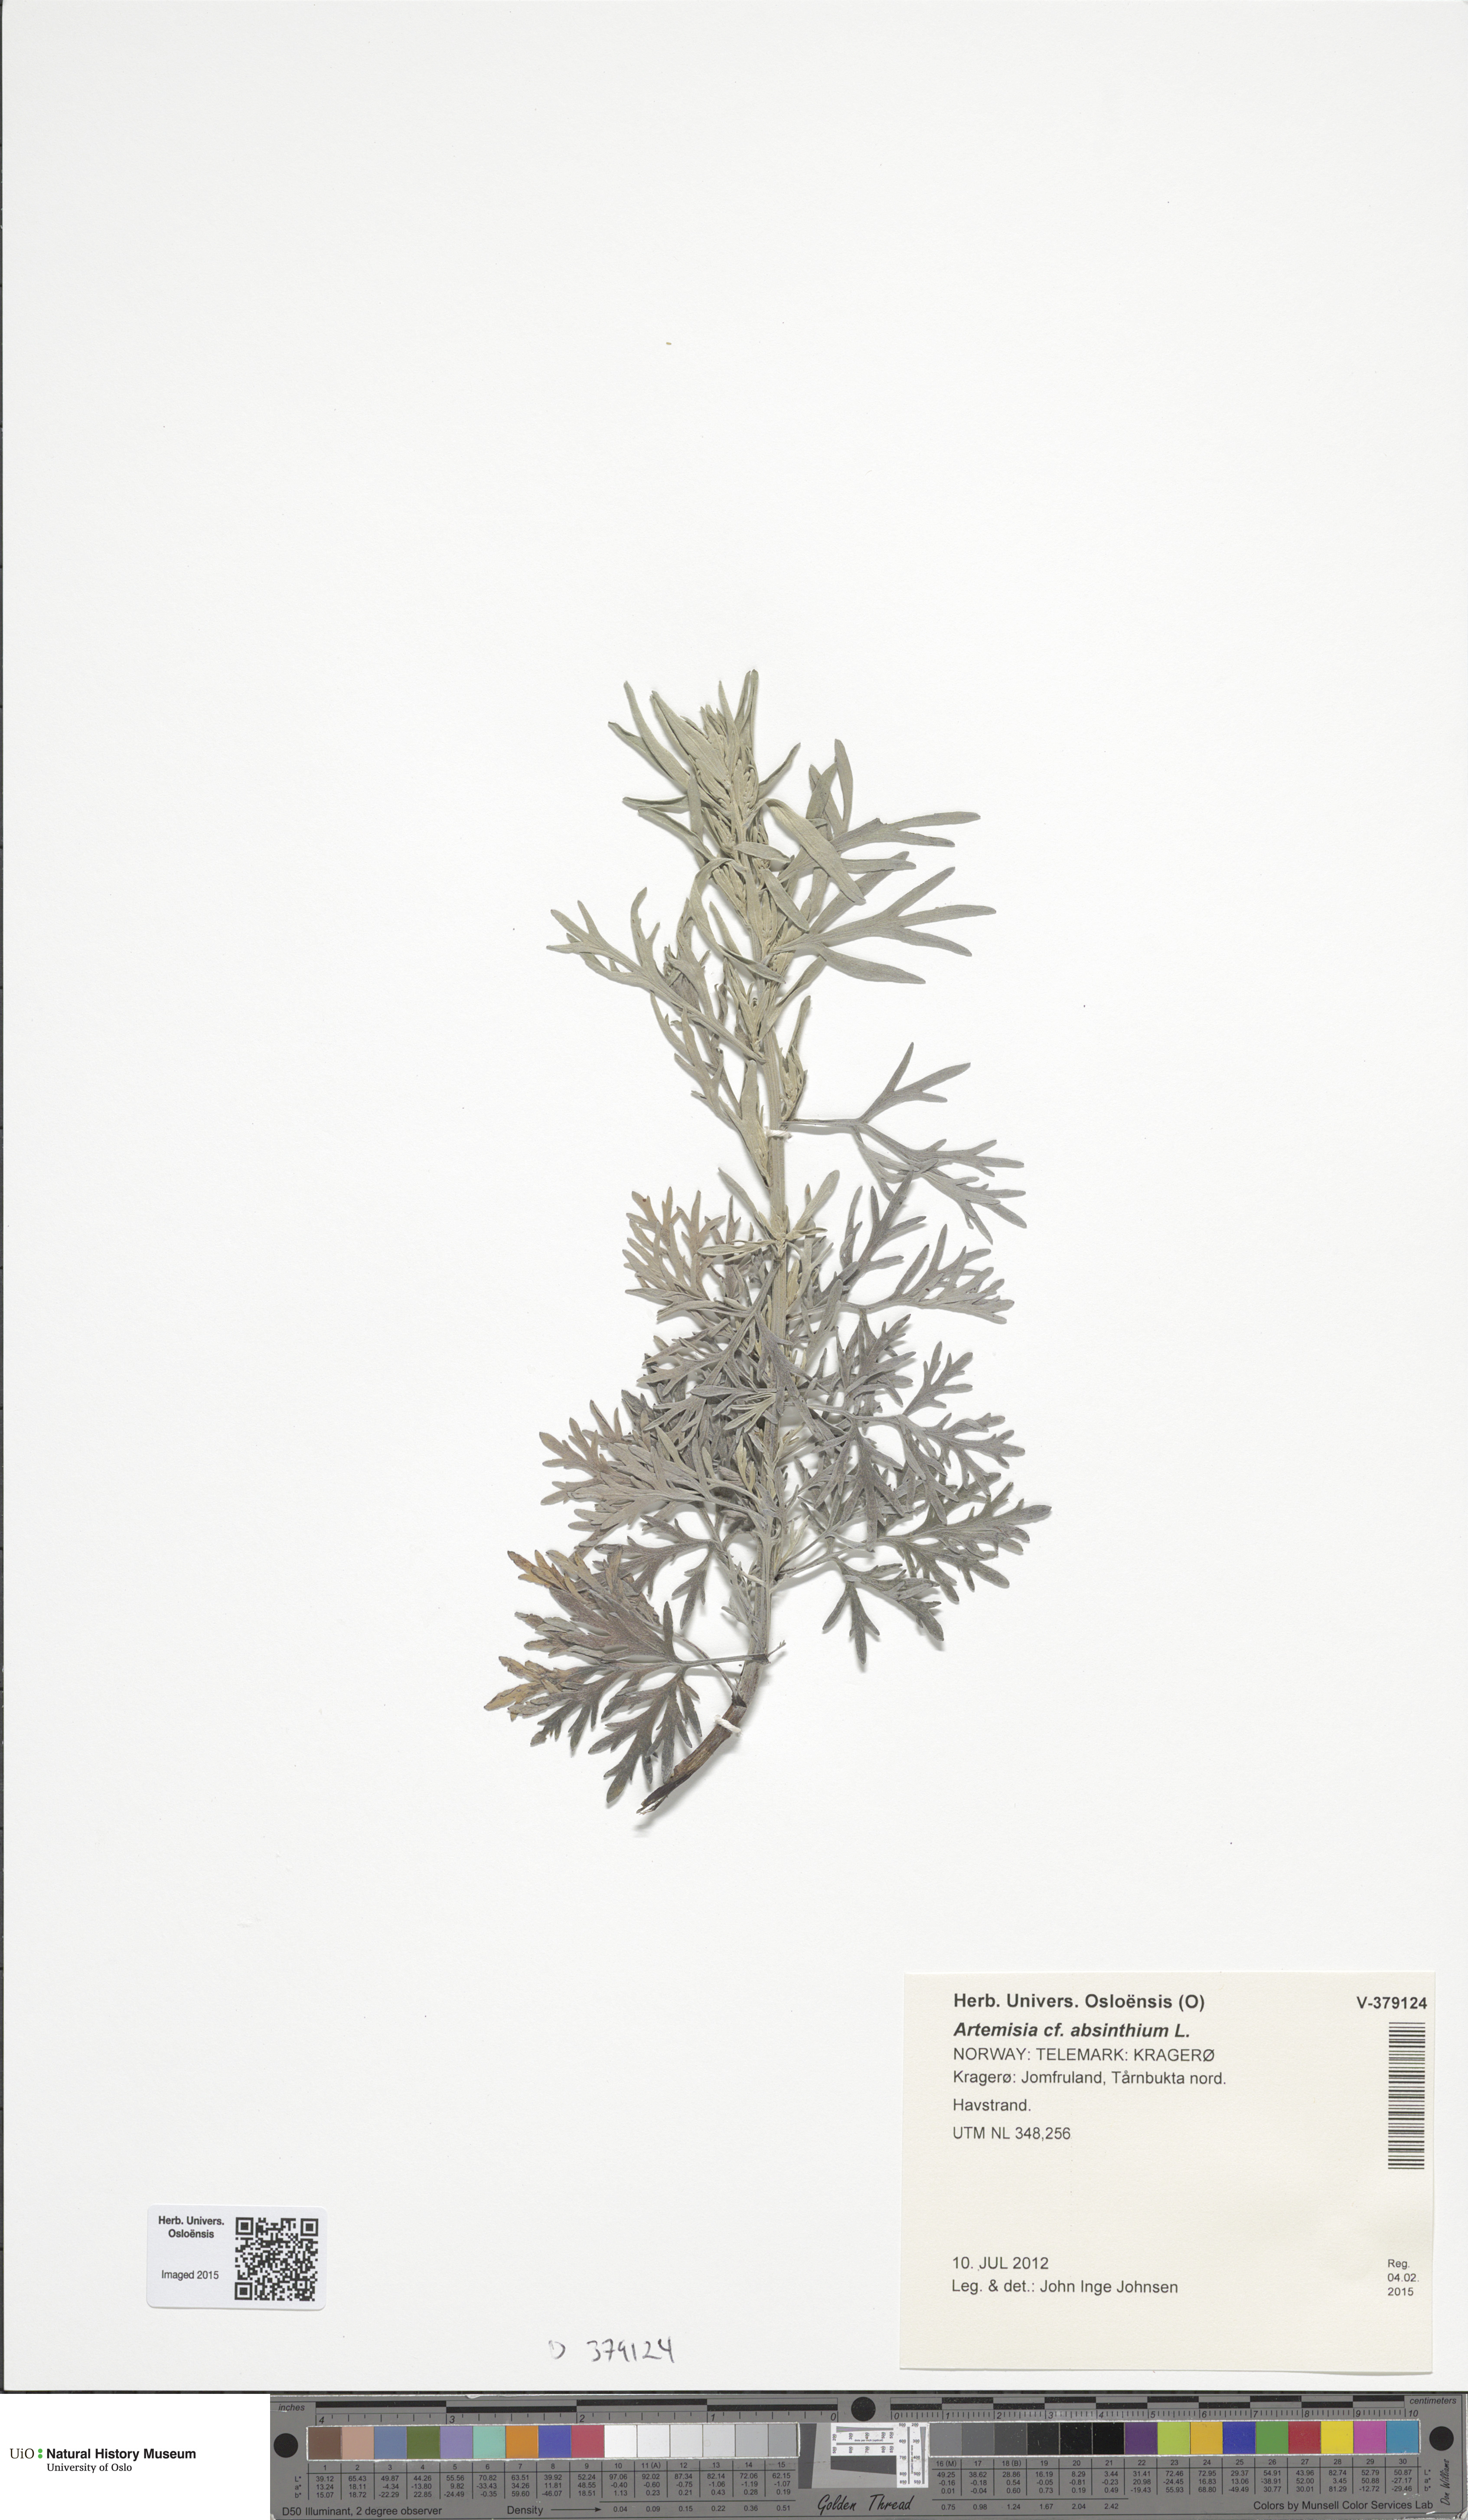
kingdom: Plantae
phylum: Tracheophyta
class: Magnoliopsida
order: Asterales
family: Asteraceae
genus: Artemisia
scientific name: Artemisia absinthium
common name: Wormwood
